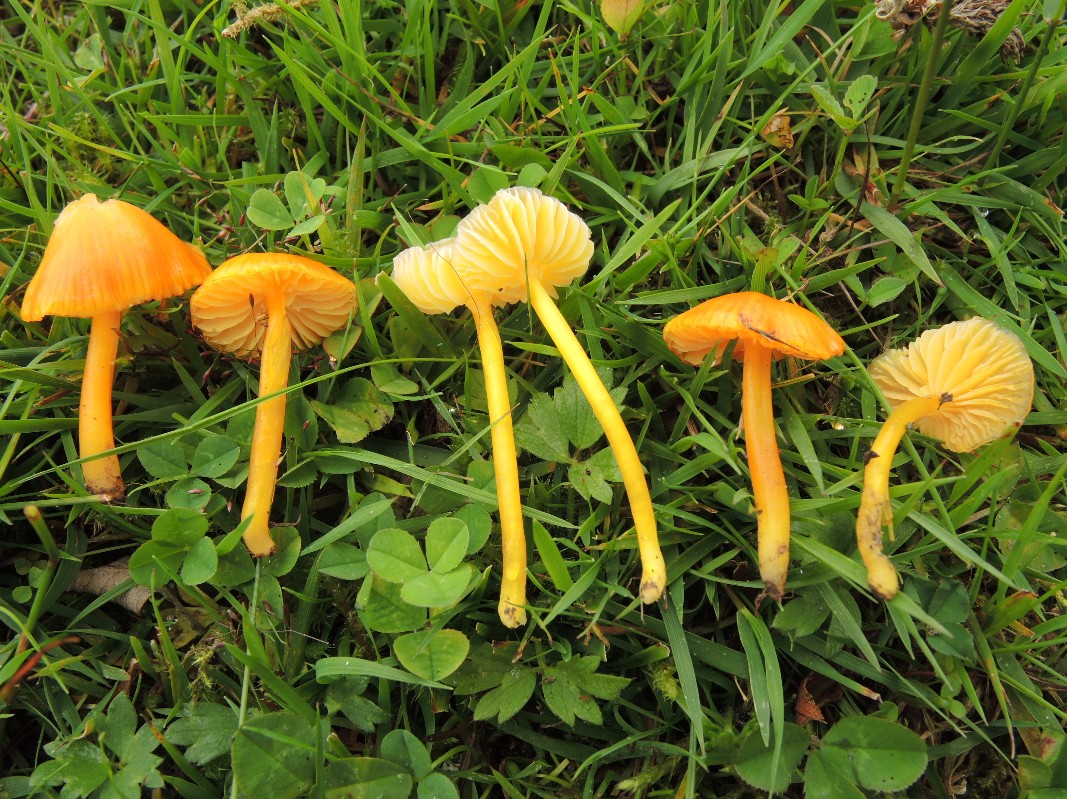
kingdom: Fungi
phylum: Basidiomycota
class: Agaricomycetes
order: Agaricales
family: Hygrophoraceae
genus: Hygrocybe
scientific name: Hygrocybe glutinipes
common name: slimstokket vokshat
